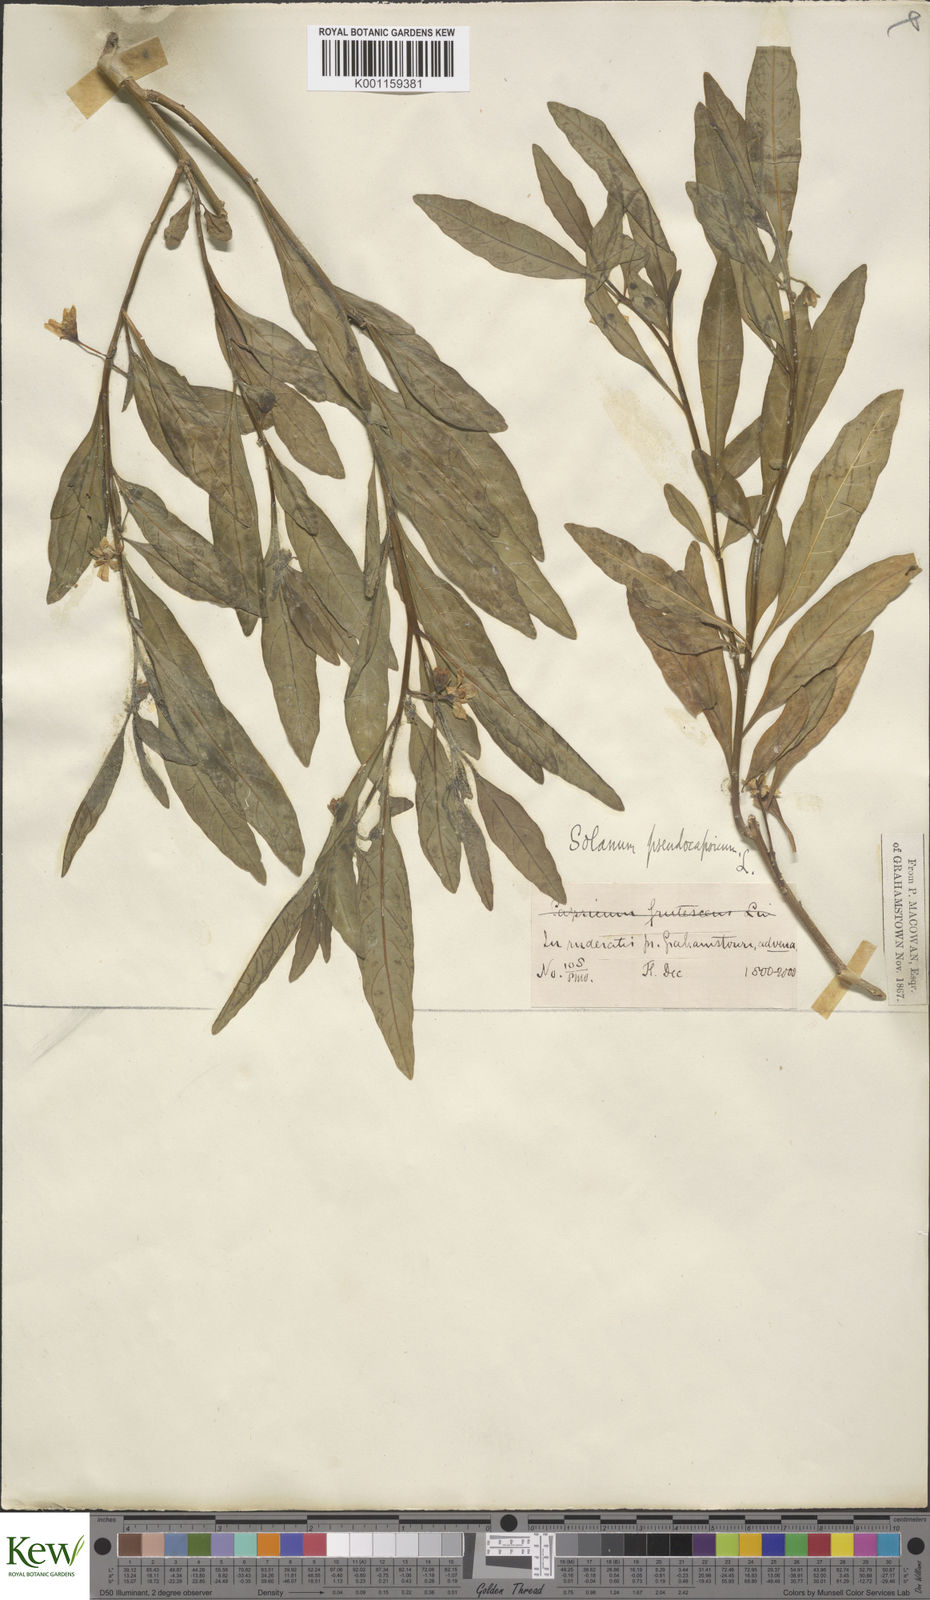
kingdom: Plantae
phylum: Tracheophyta
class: Magnoliopsida
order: Solanales
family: Solanaceae
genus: Solanum
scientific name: Solanum pseudocapsicum
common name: Jerusalem cherry
